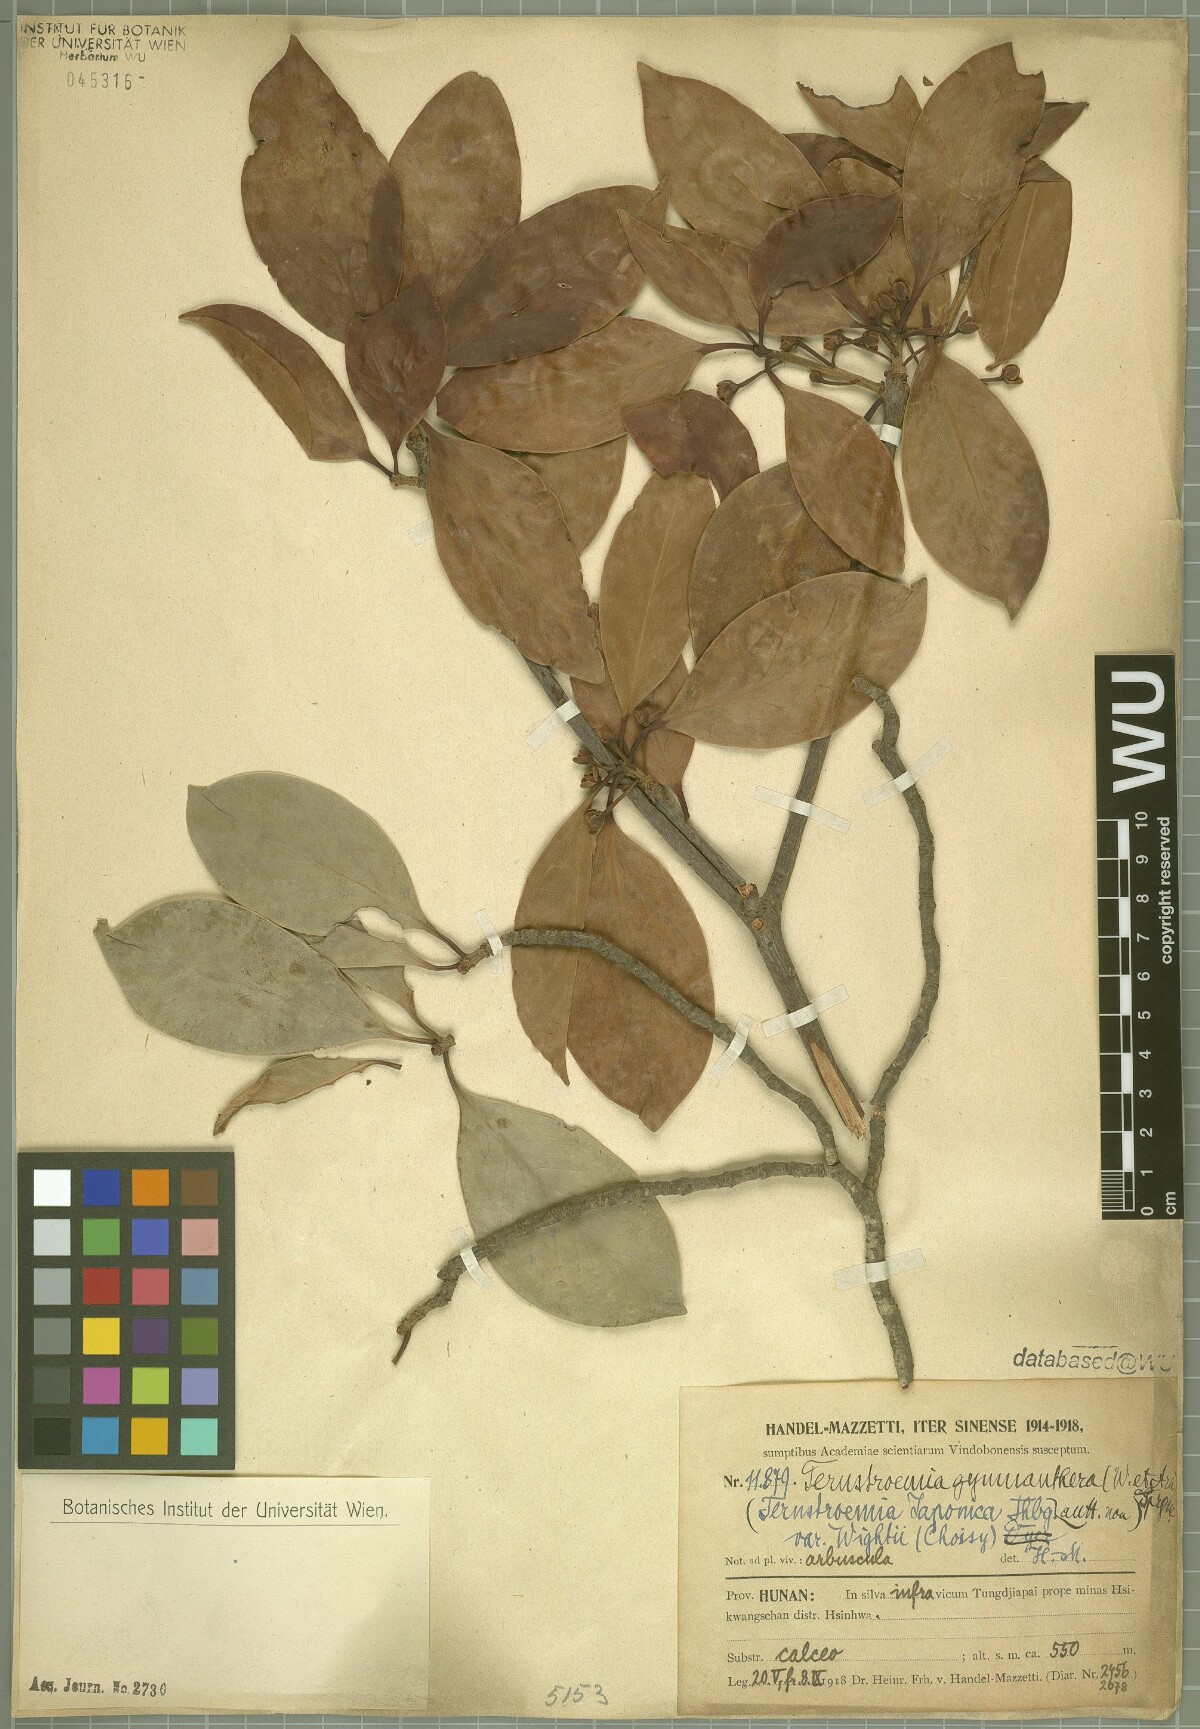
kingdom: Plantae
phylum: Tracheophyta
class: Magnoliopsida
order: Ericales
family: Pentaphylacaceae
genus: Ternstroemia
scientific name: Ternstroemia gymnanthera
